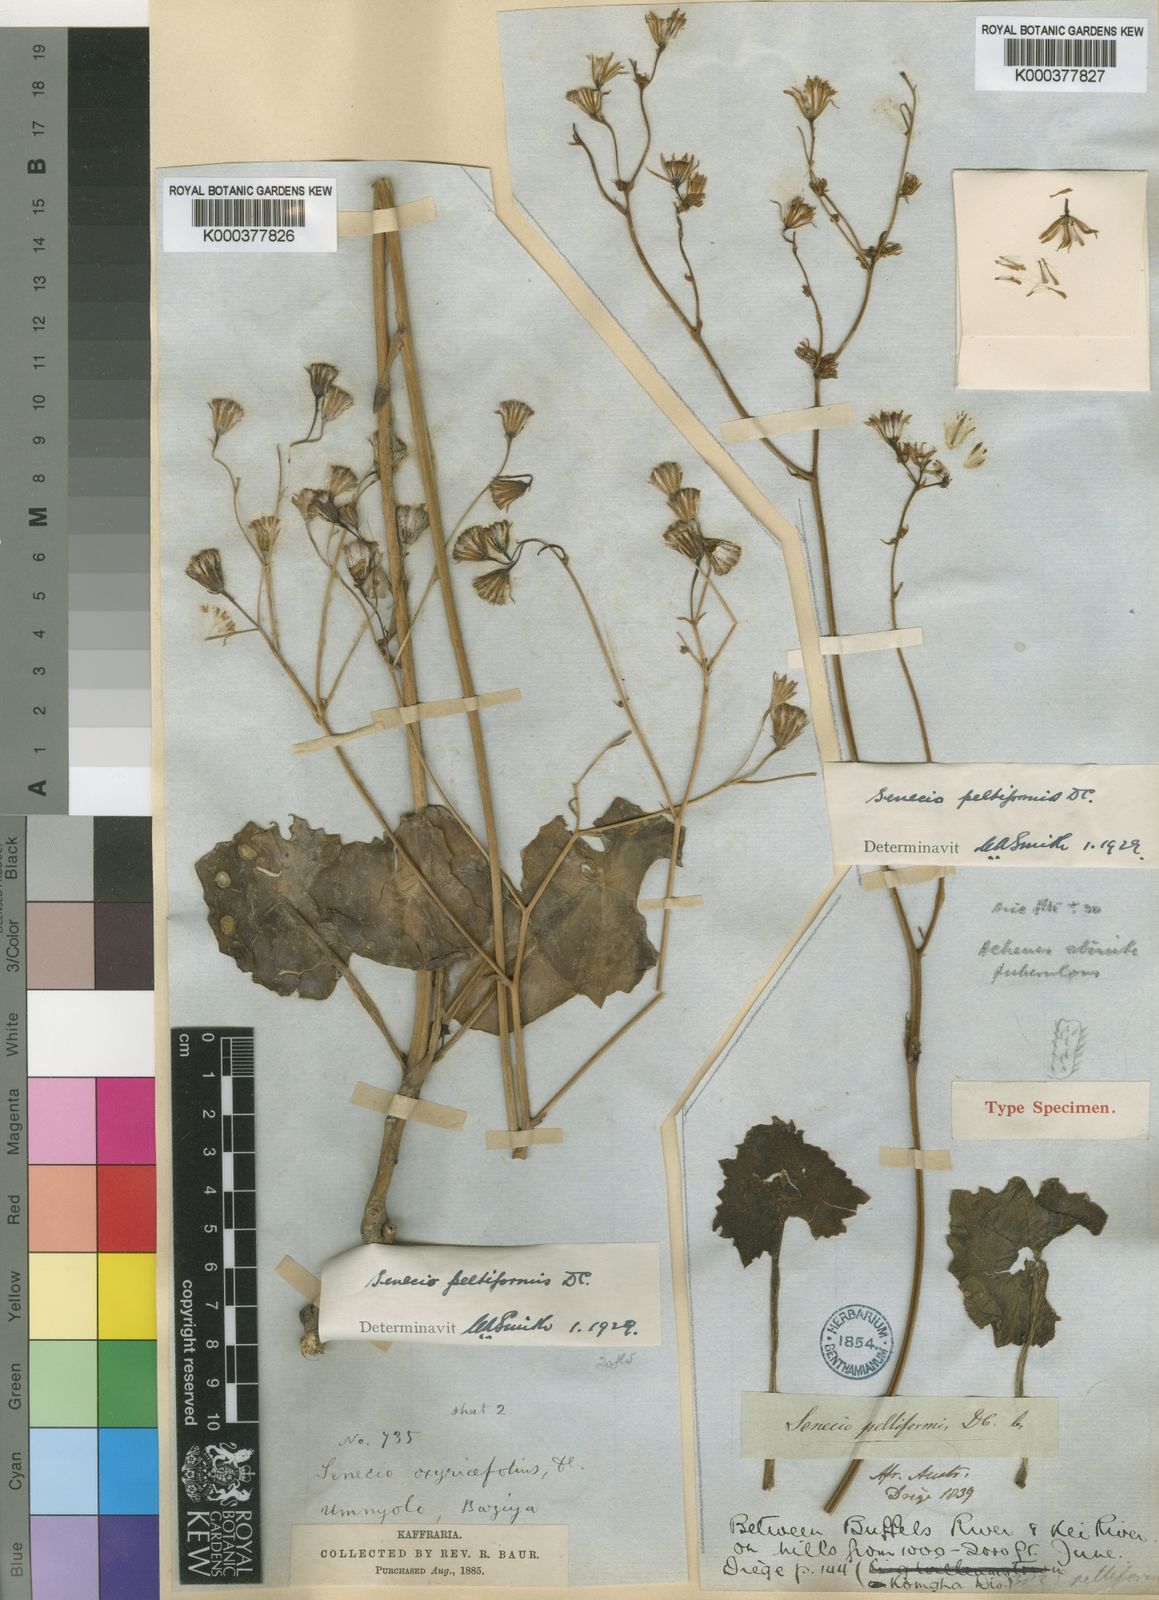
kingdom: Plantae
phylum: Tracheophyta
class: Magnoliopsida
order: Asterales
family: Asteraceae
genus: Senecio
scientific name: Senecio
